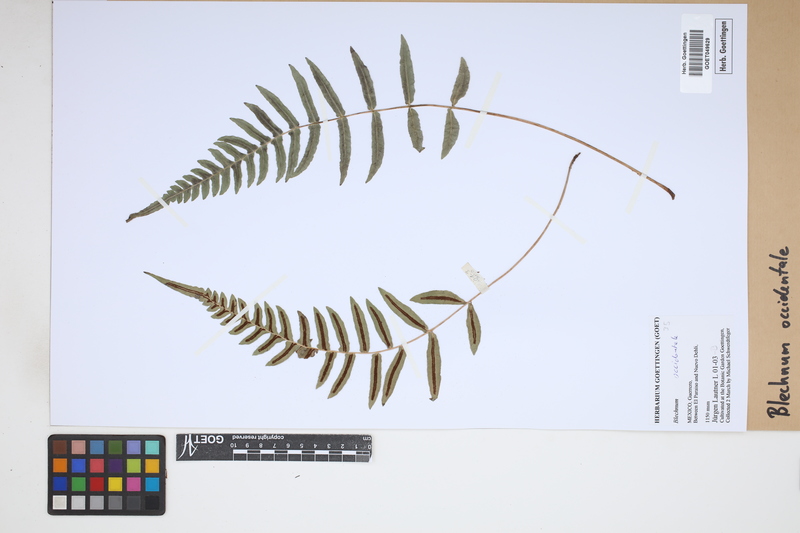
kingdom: Plantae
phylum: Tracheophyta
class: Polypodiopsida
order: Polypodiales
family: Blechnaceae
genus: Blechnum
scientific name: Blechnum occidentale
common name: Hammock fern
